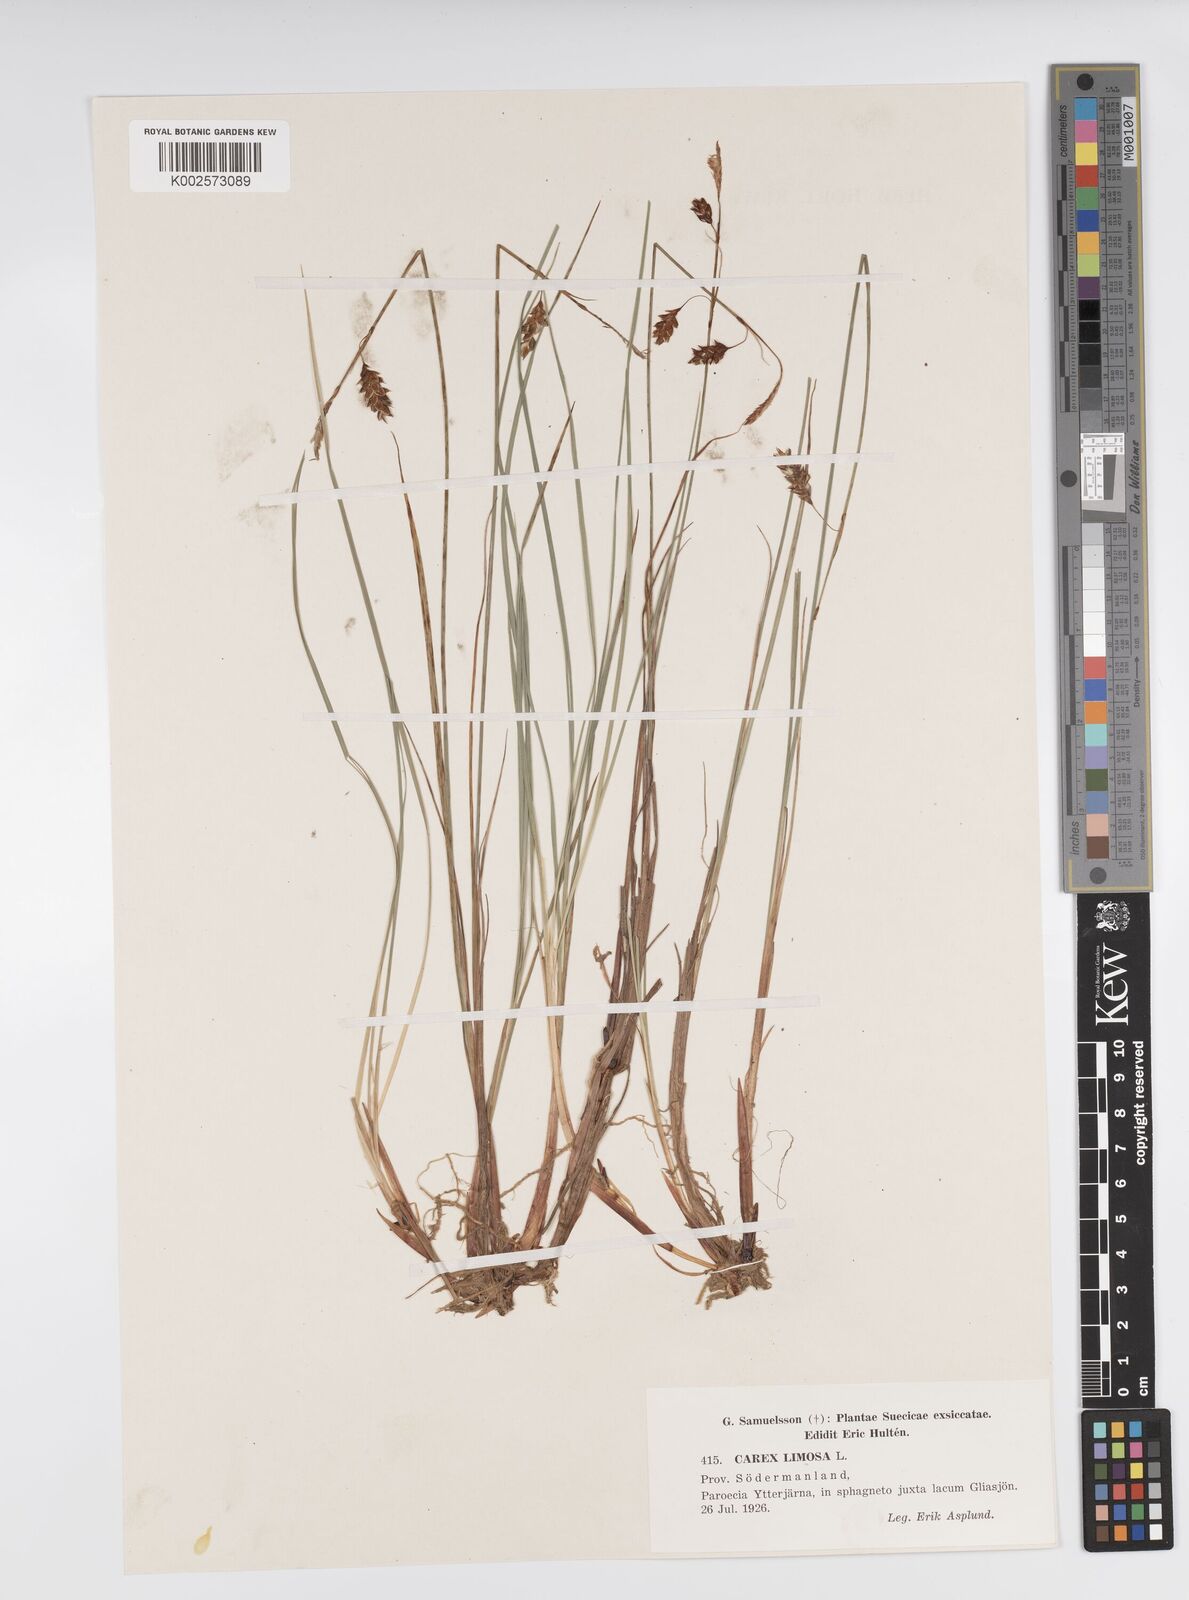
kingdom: Plantae
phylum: Tracheophyta
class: Liliopsida
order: Poales
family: Cyperaceae
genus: Carex
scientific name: Carex limosa
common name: Bog sedge
